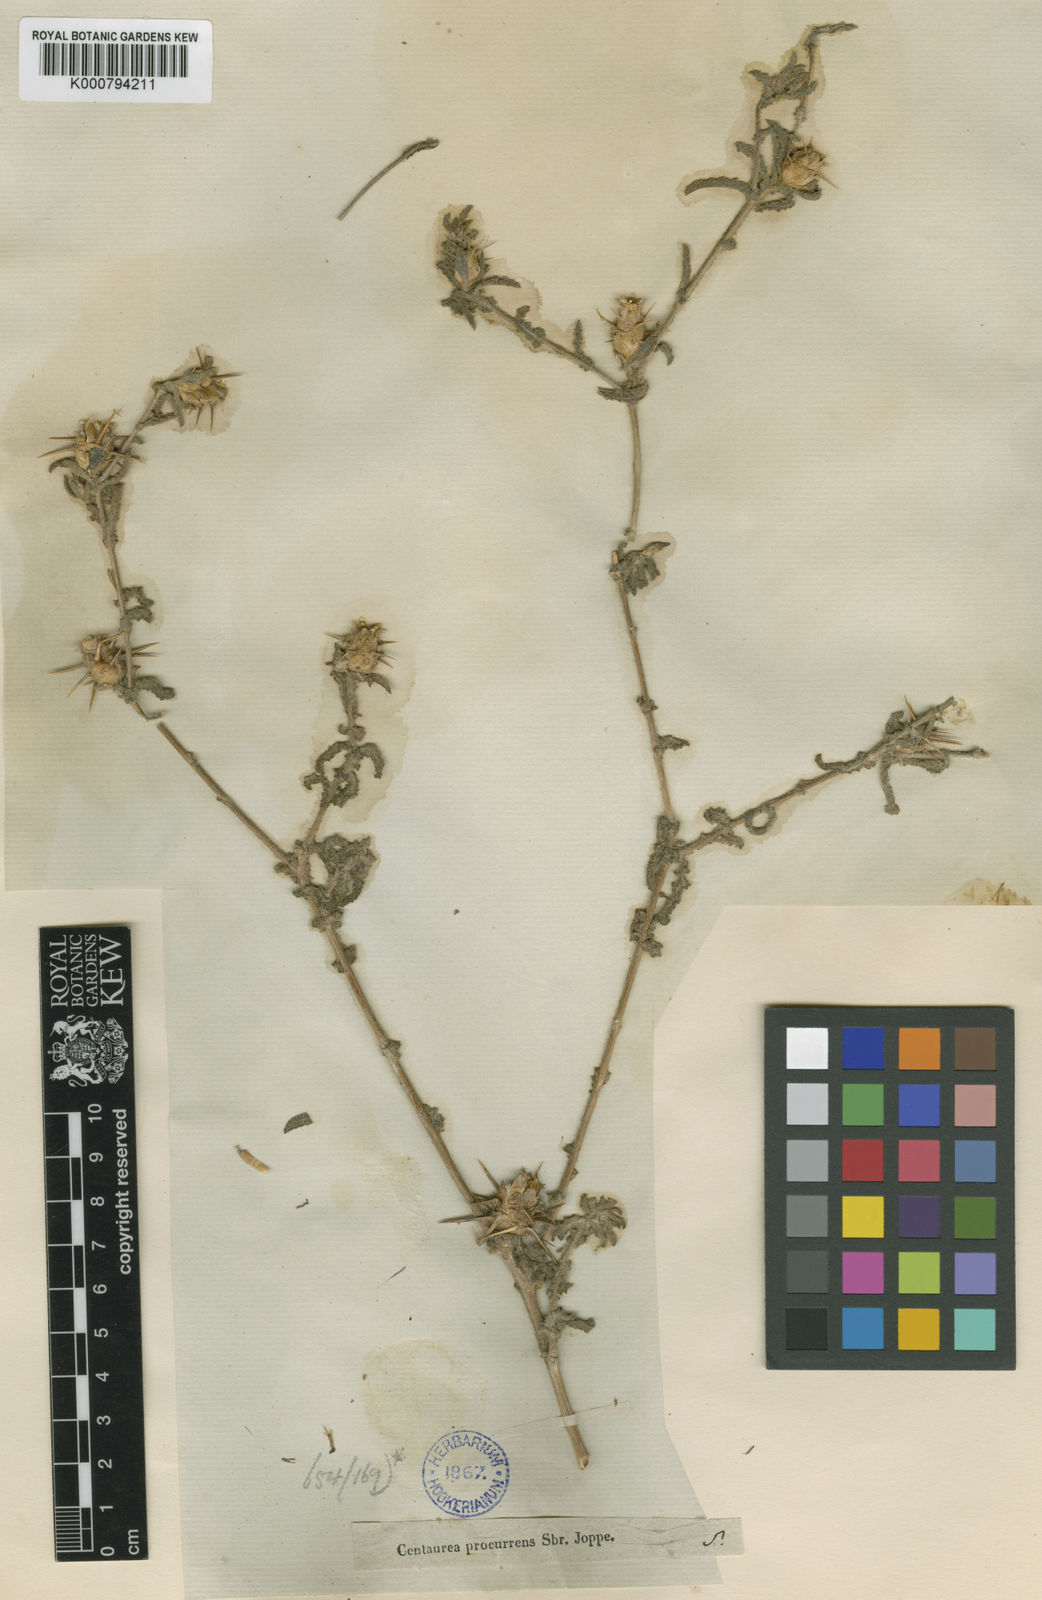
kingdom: Plantae
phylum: Tracheophyta
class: Magnoliopsida
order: Asterales
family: Asteraceae
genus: Centaurea
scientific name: Centaurea jordaniana
